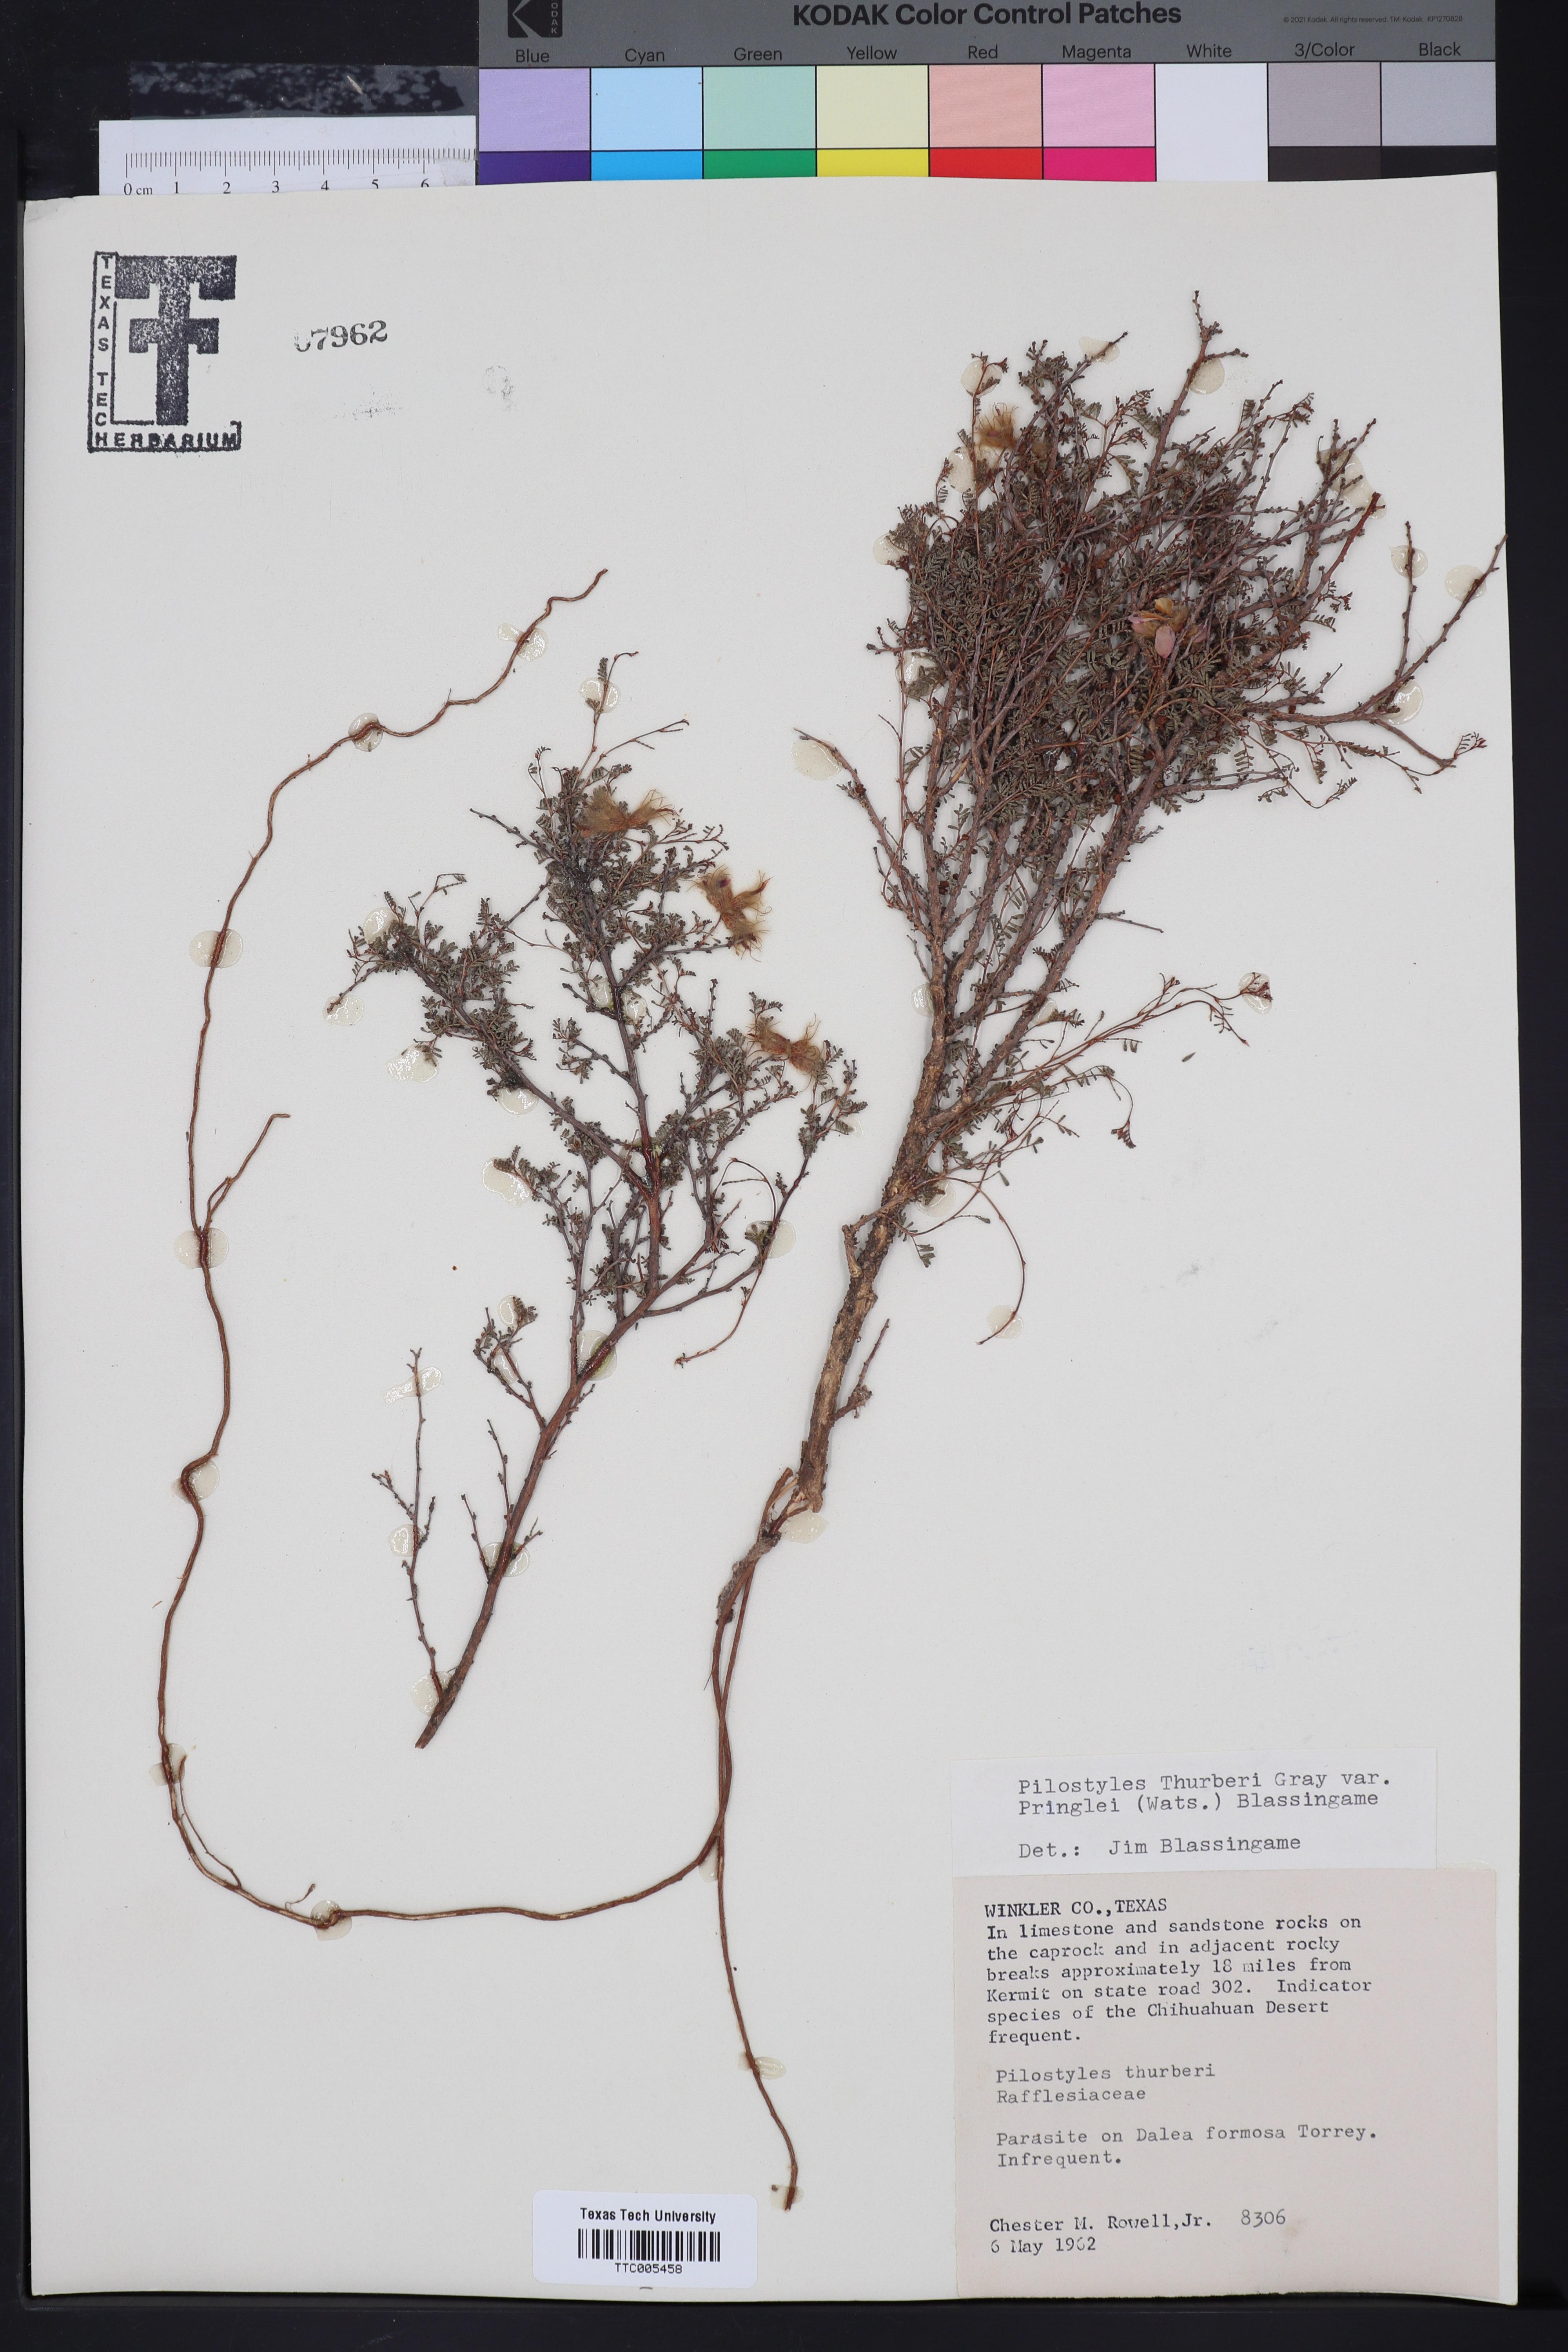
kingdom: Plantae
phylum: Tracheophyta
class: Magnoliopsida
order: Cucurbitales
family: Apodanthaceae
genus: Pilostyles
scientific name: Pilostyles thurberi
